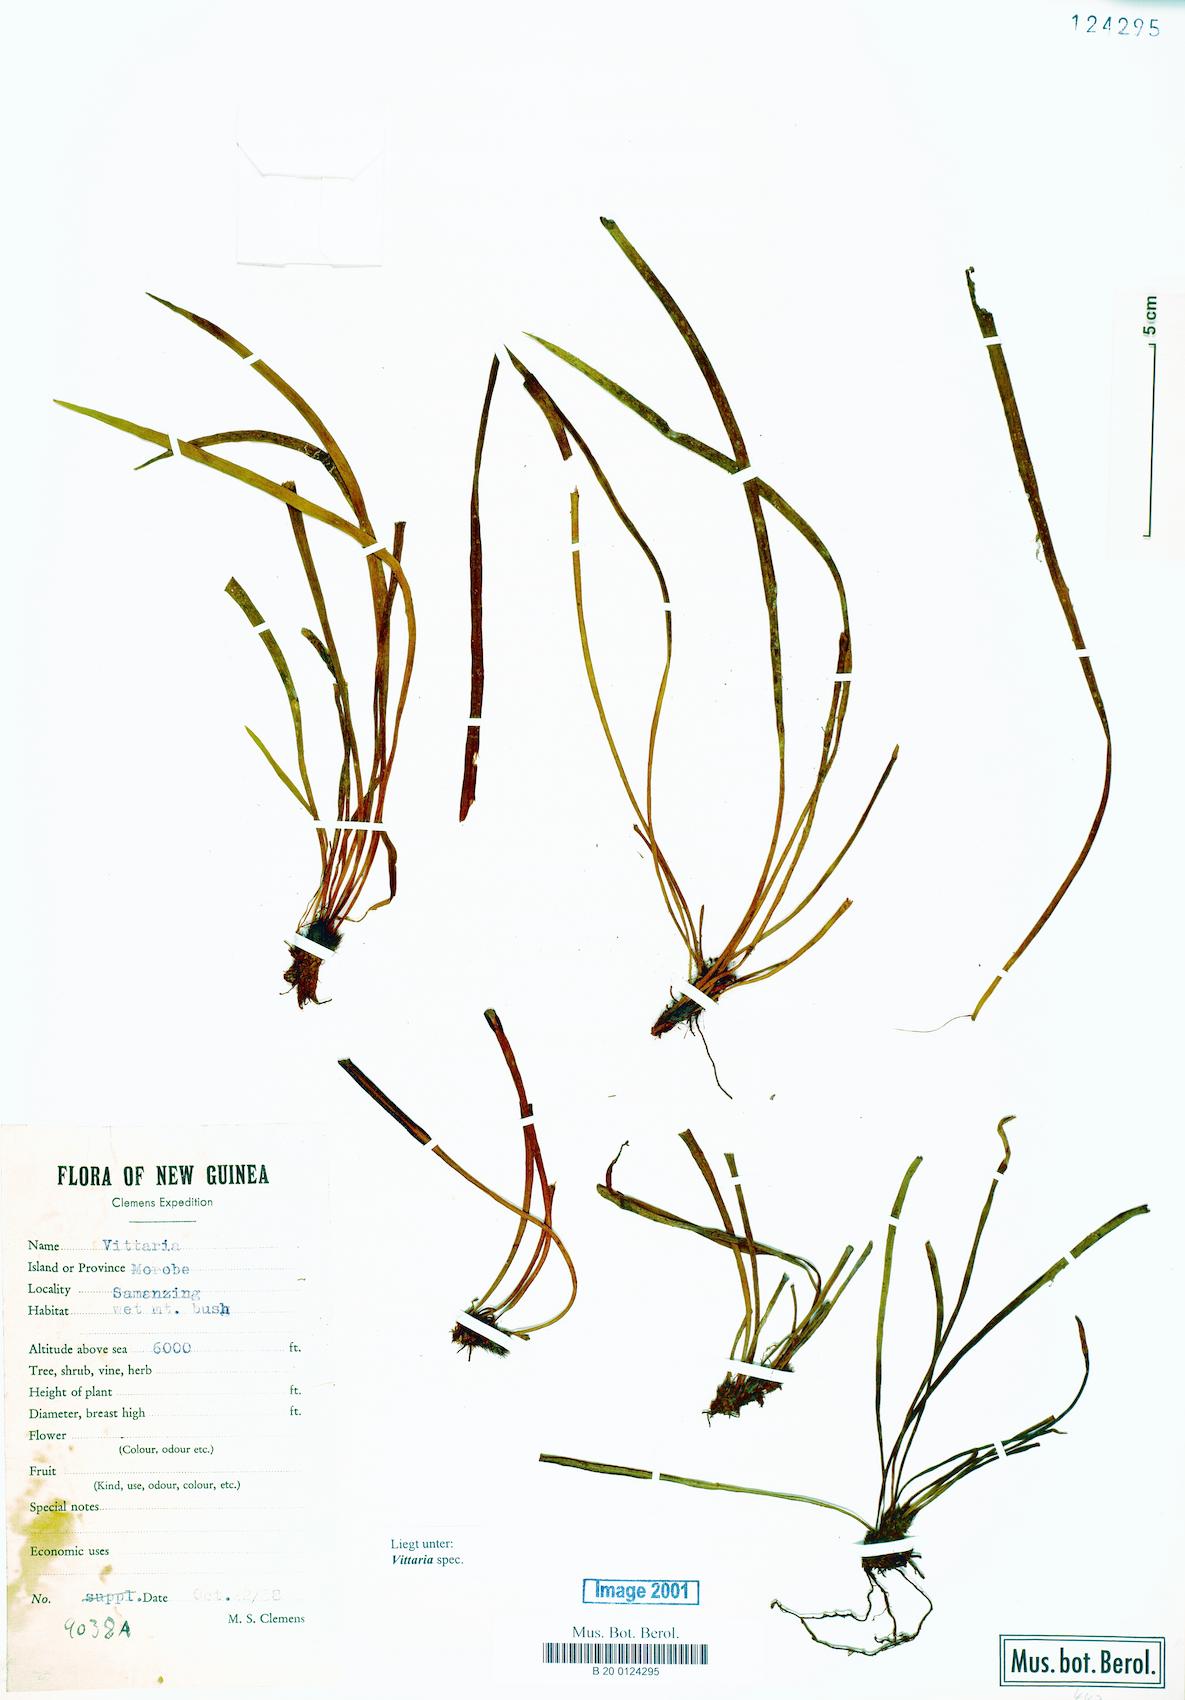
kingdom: Plantae
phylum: Tracheophyta
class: Polypodiopsida
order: Polypodiales
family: Pteridaceae
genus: Vittaria
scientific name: Vittaria
